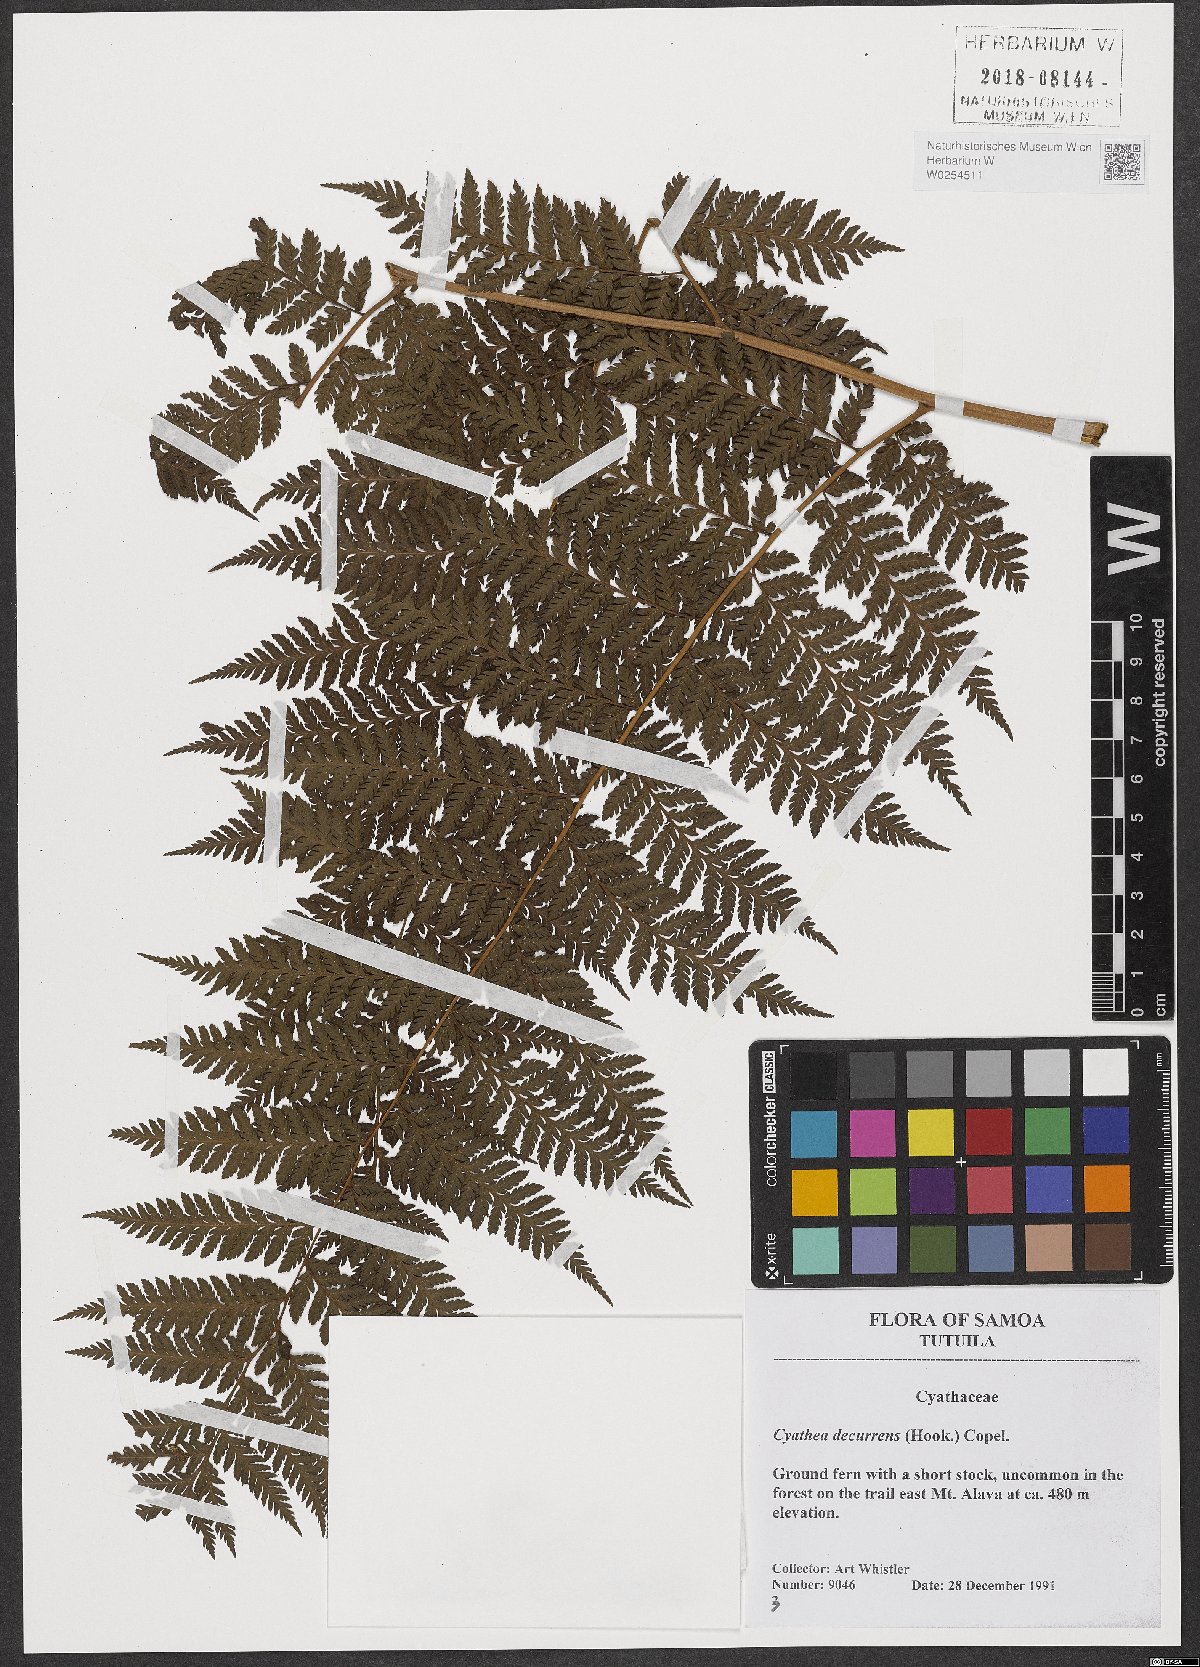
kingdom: Plantae
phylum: Tracheophyta
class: Polypodiopsida
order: Cyatheales
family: Cyatheaceae
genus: Cyathea
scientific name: Cyathea decurrens
